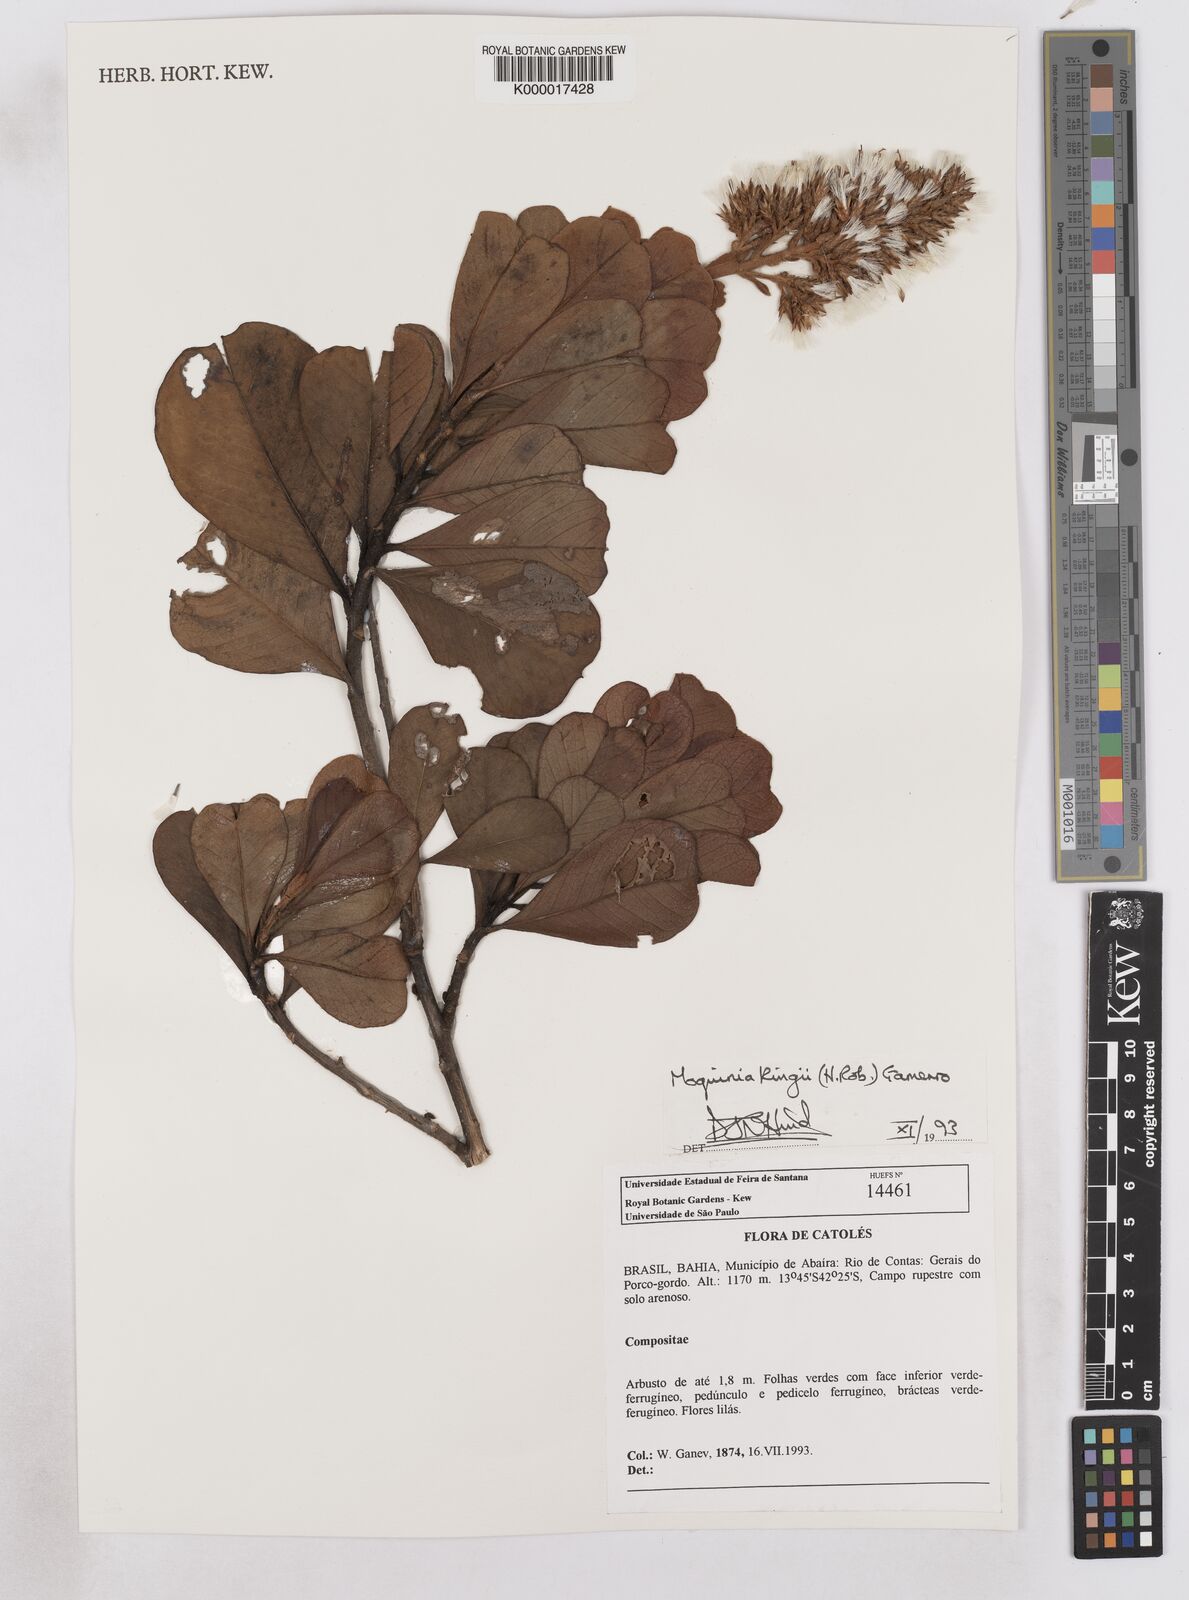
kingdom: Plantae
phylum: Tracheophyta
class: Magnoliopsida
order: Asterales
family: Asteraceae
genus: Pseudostifftia
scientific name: Pseudostifftia kingii
